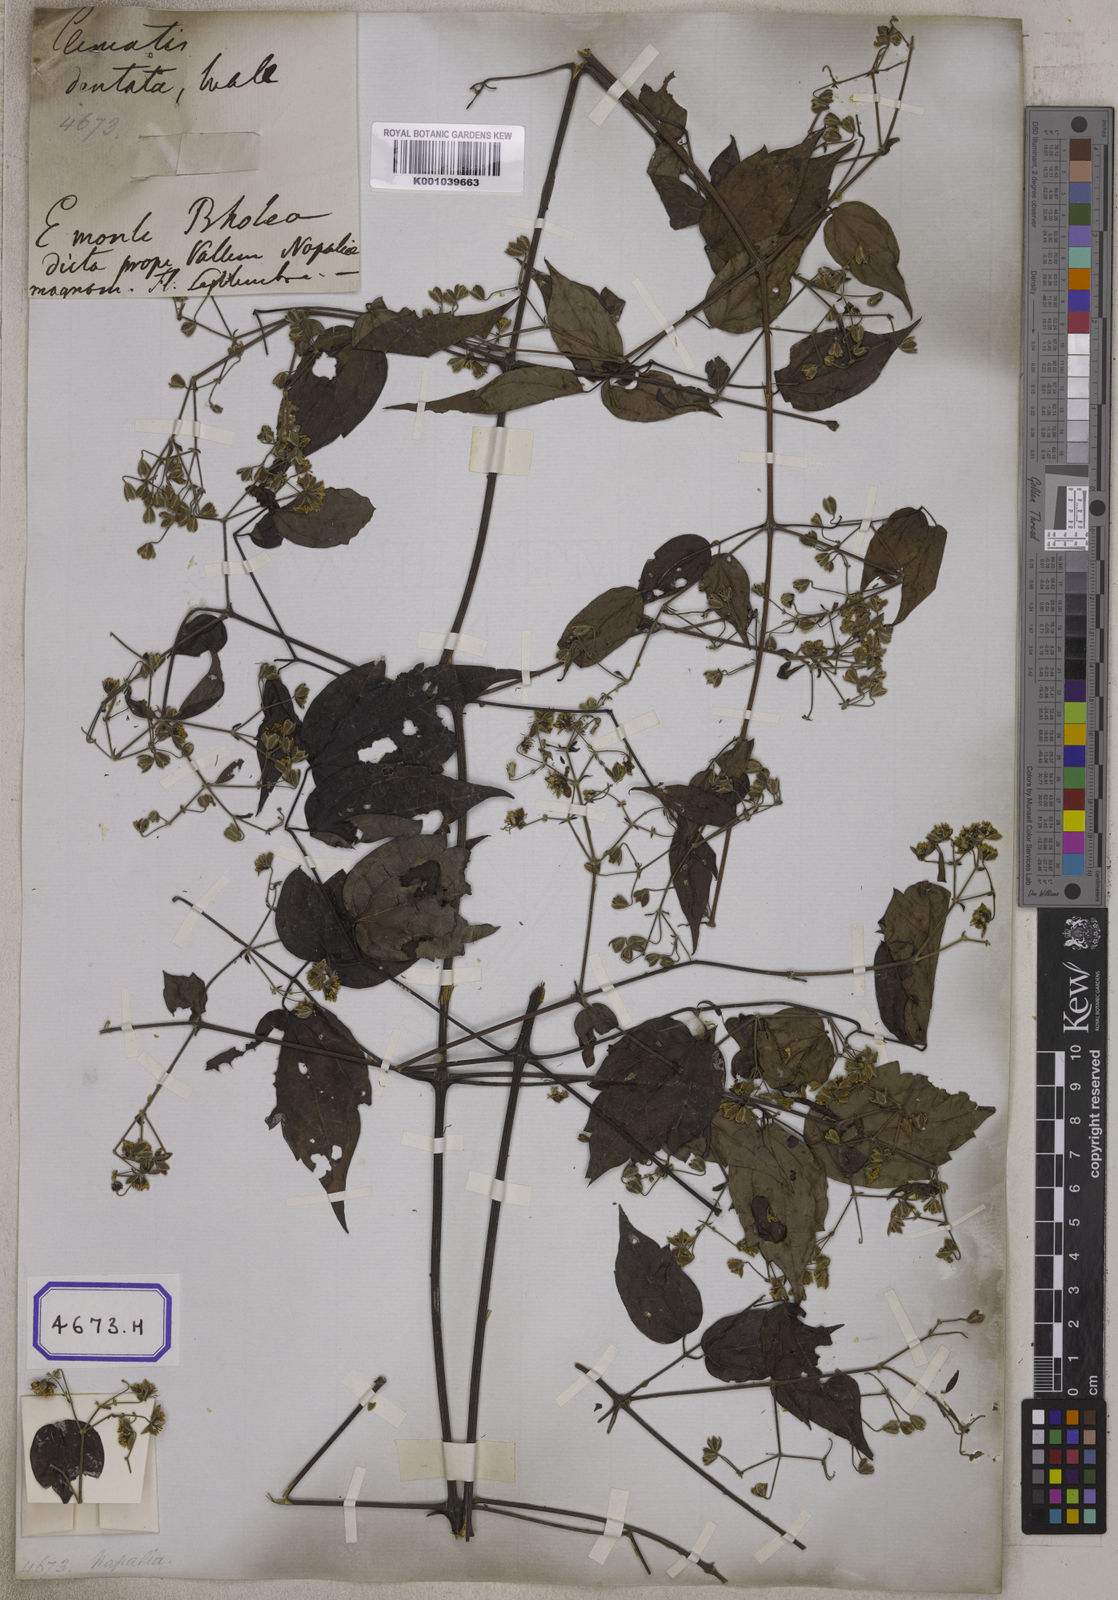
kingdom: Plantae
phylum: Tracheophyta
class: Magnoliopsida
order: Ranunculales
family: Ranunculaceae
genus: Clematis
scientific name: Clematis
